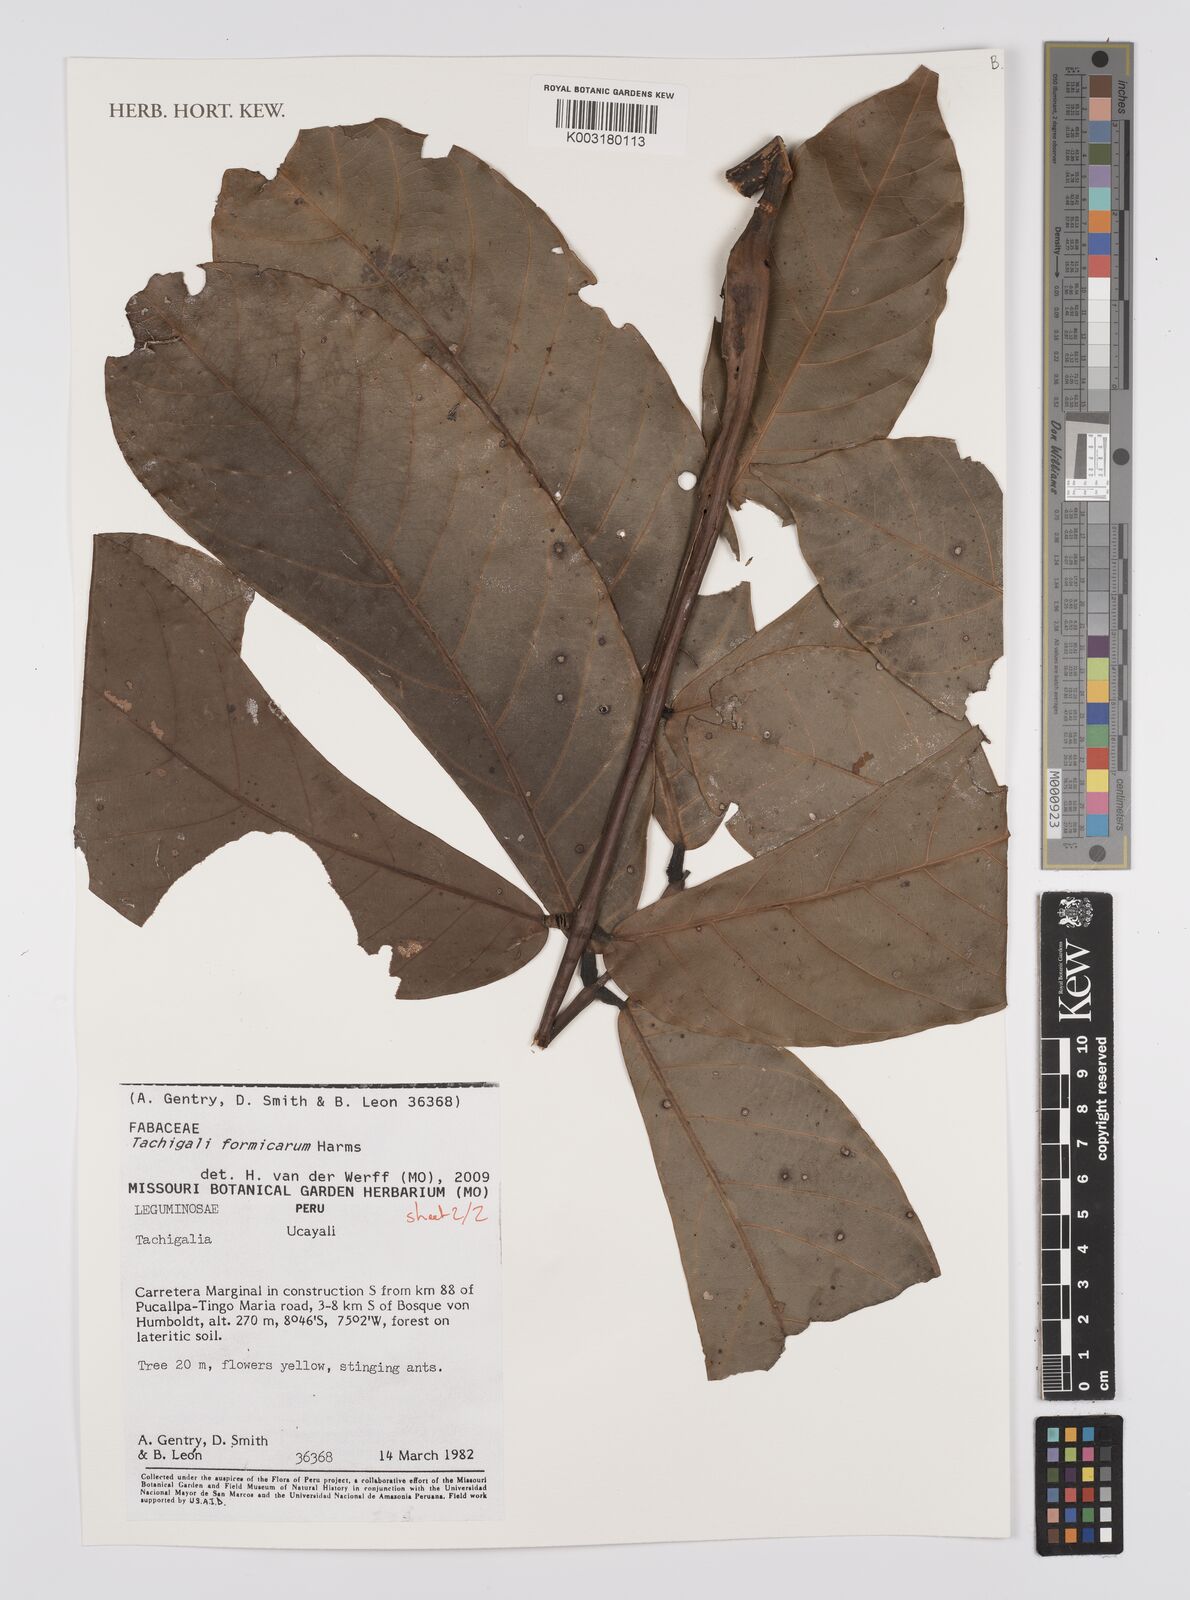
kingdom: Plantae
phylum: Tracheophyta
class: Magnoliopsida
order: Fabales
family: Fabaceae
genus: Tachigali
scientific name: Tachigali formicarum
